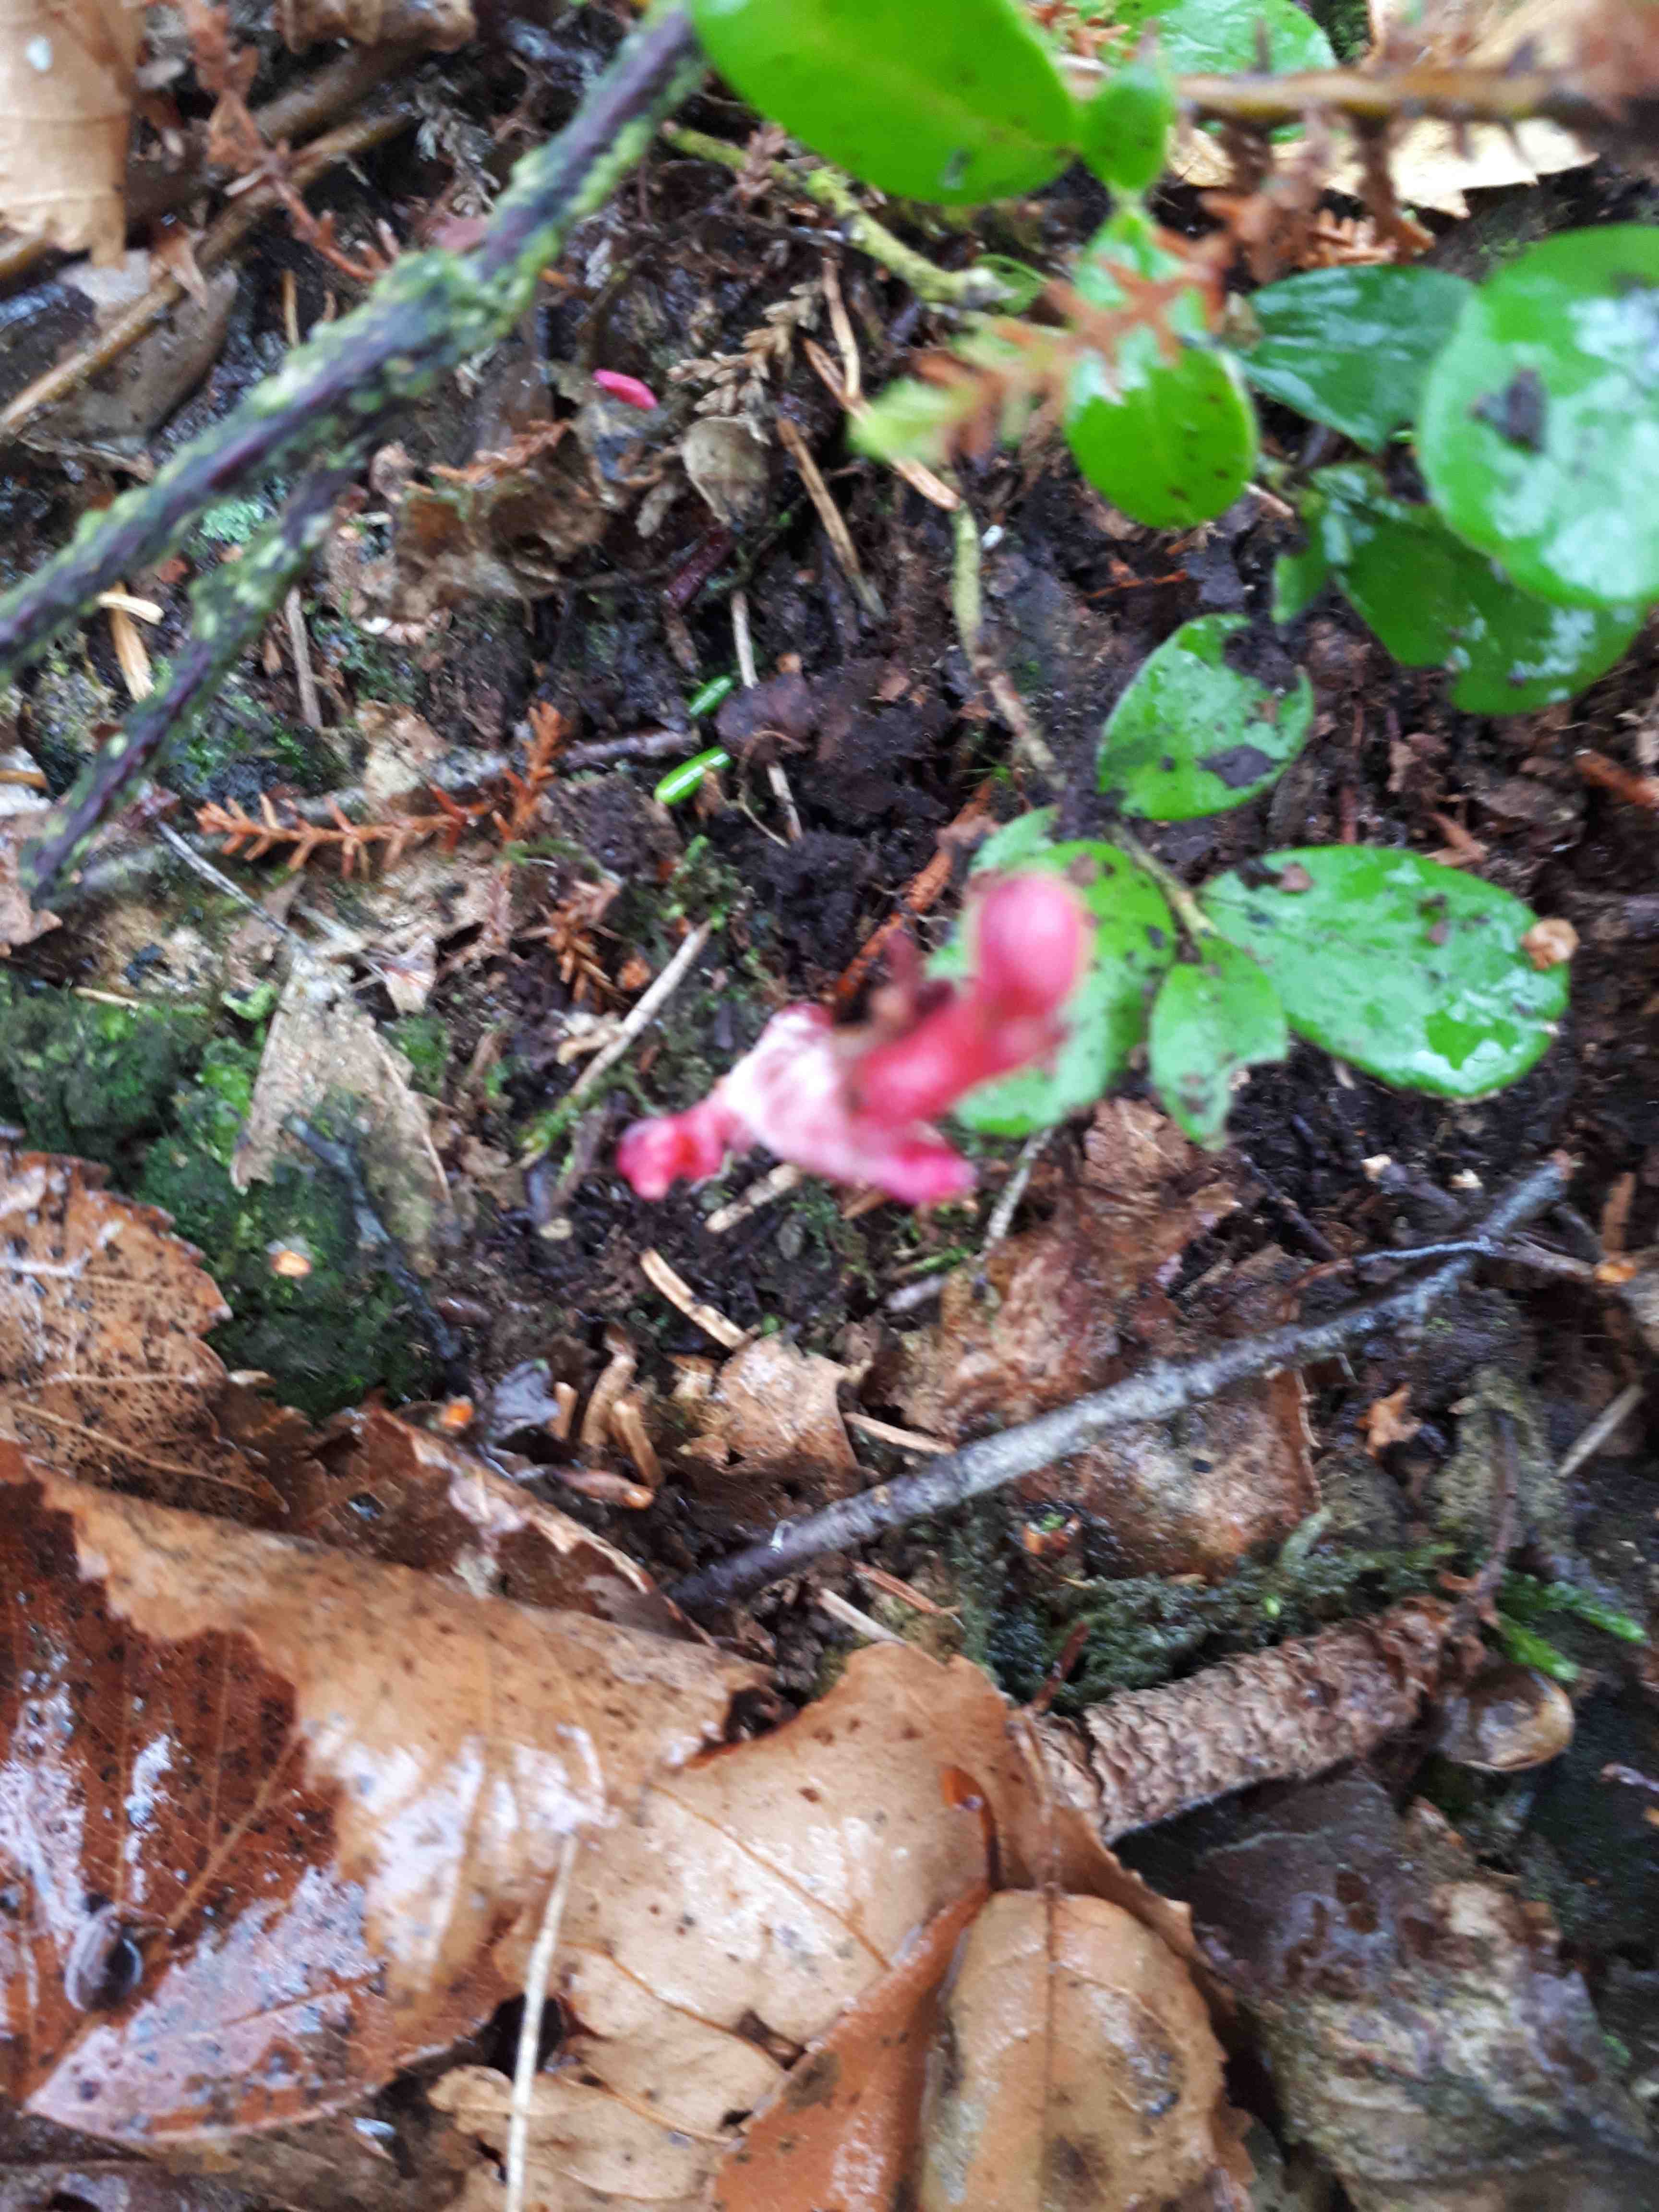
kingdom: Fungi
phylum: Basidiomycota
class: Exobasidiomycetes
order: Exobasidiales
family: Exobasidiaceae
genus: Exobasidium
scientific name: Exobasidium vaccinii
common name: tyttebærblad-bøllesvamp
